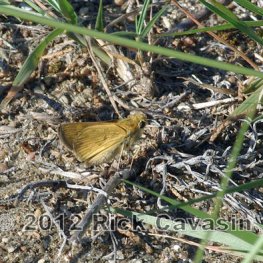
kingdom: Animalia
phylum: Arthropoda
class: Insecta
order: Lepidoptera
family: Hesperiidae
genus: Hylephila
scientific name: Hylephila phyleus
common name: Fiery Skipper
